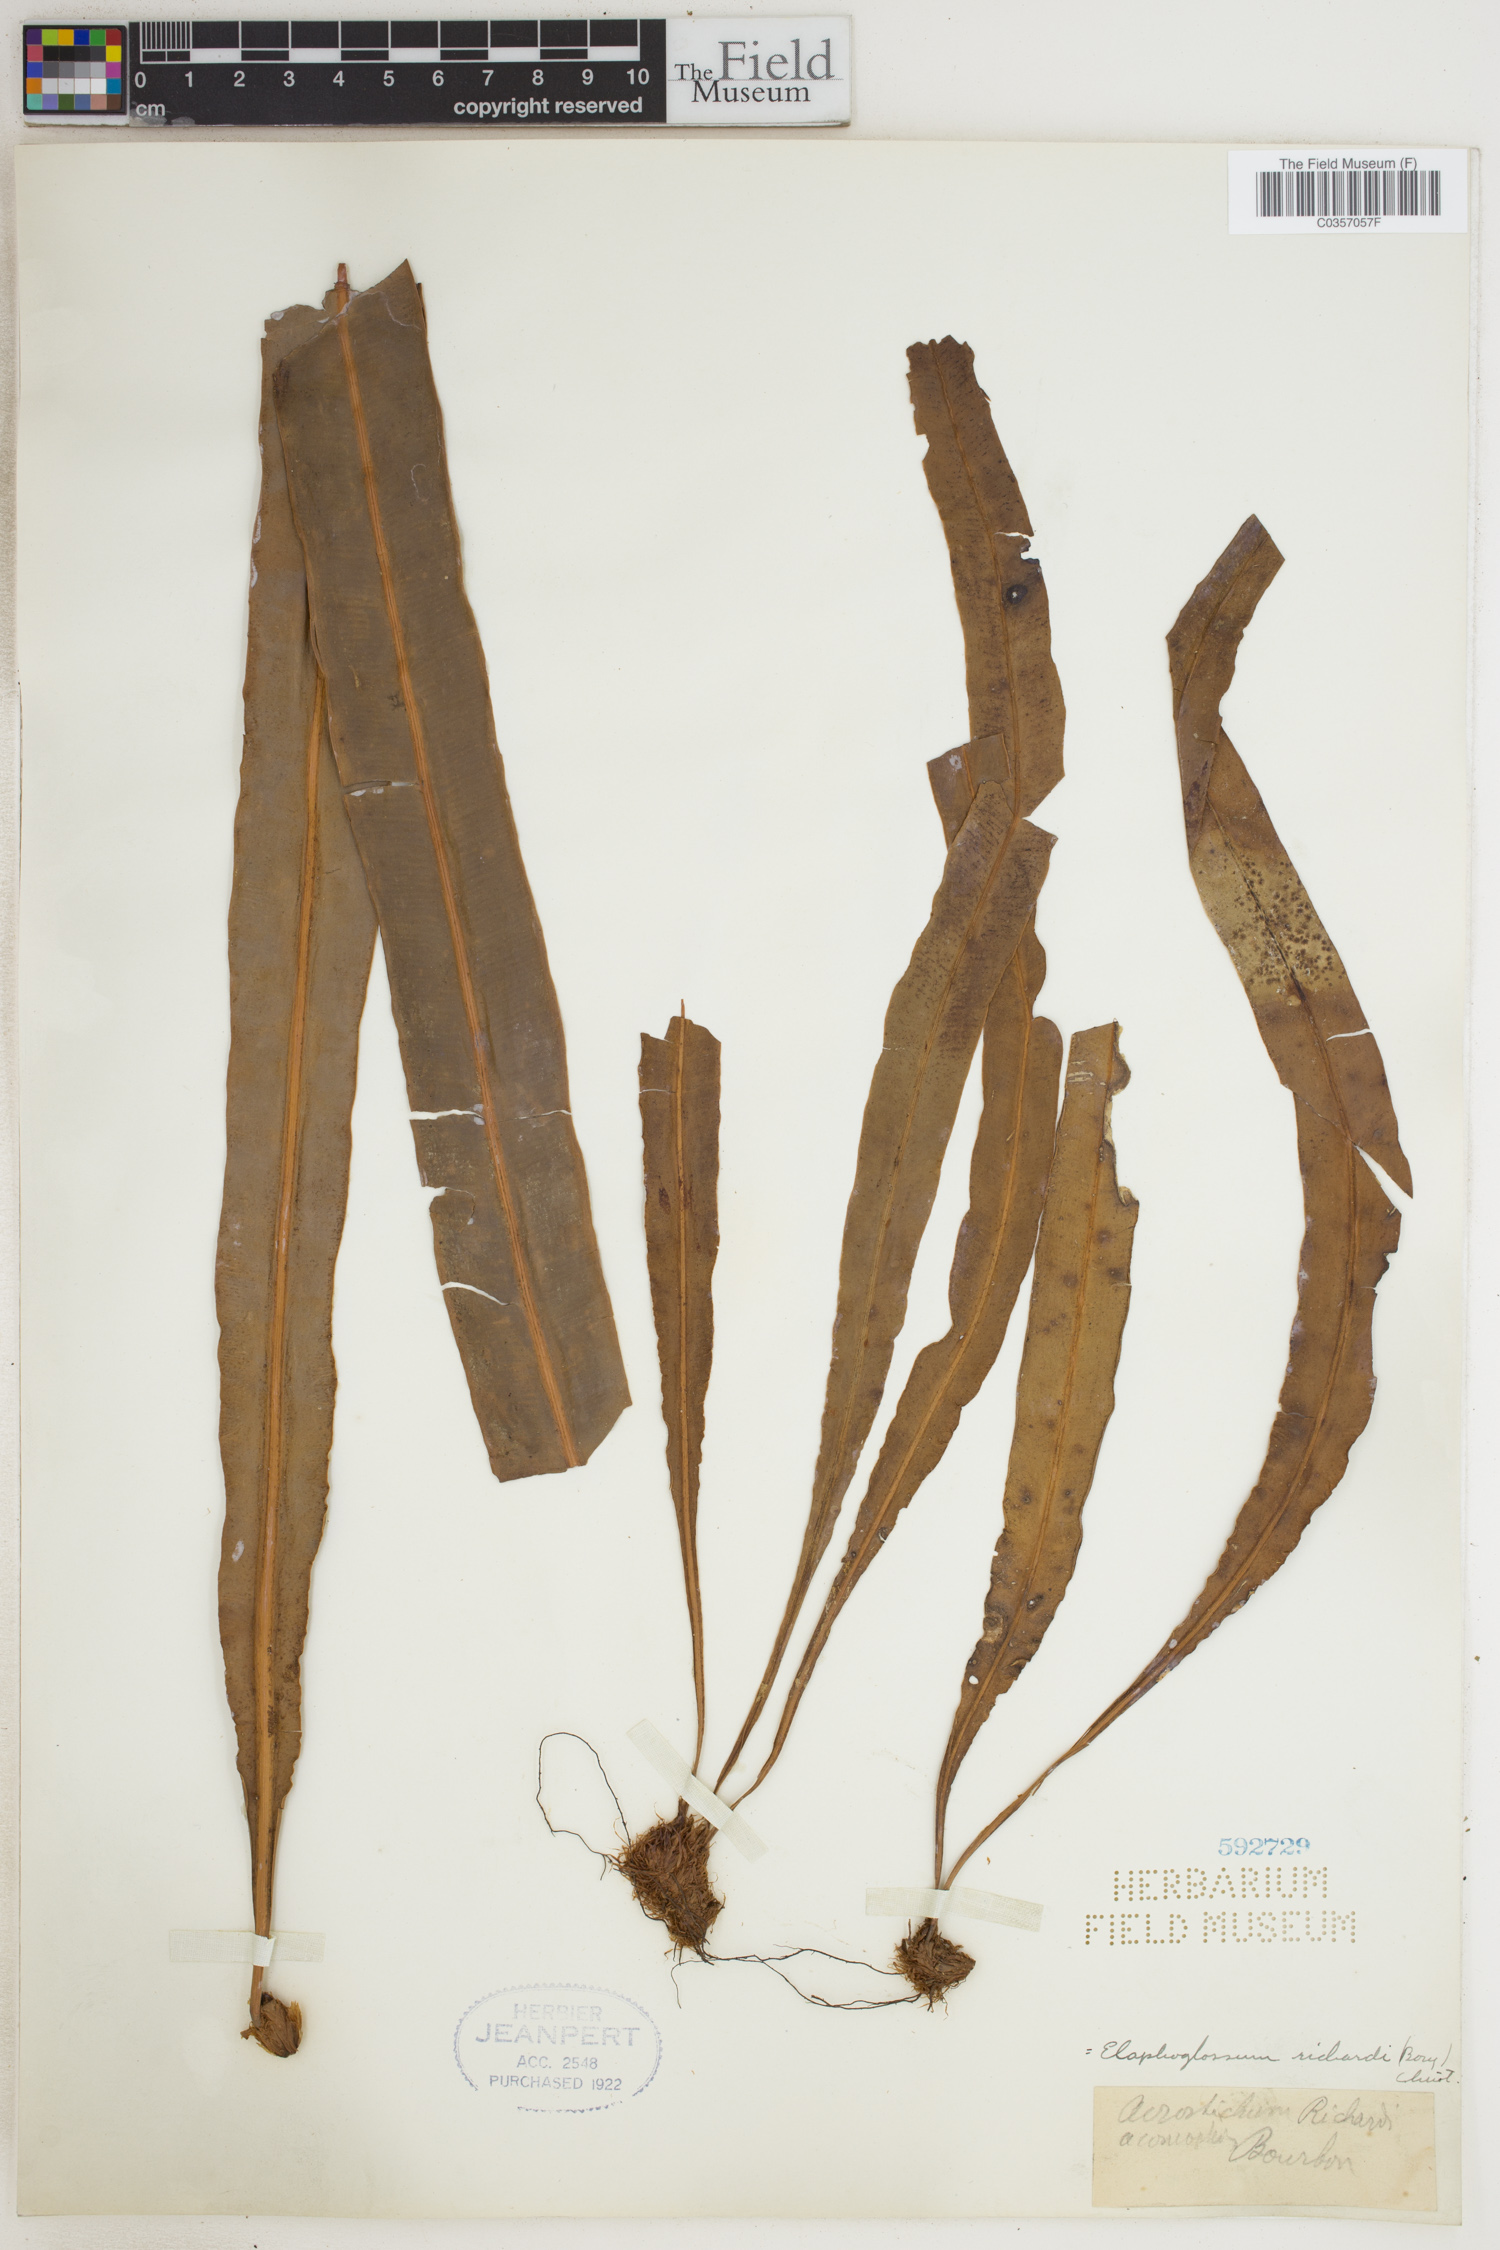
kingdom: Plantae
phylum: Tracheophyta
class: Polypodiopsida
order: Polypodiales
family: Dryopteridaceae
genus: Elaphoglossum
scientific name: Elaphoglossum richardii
